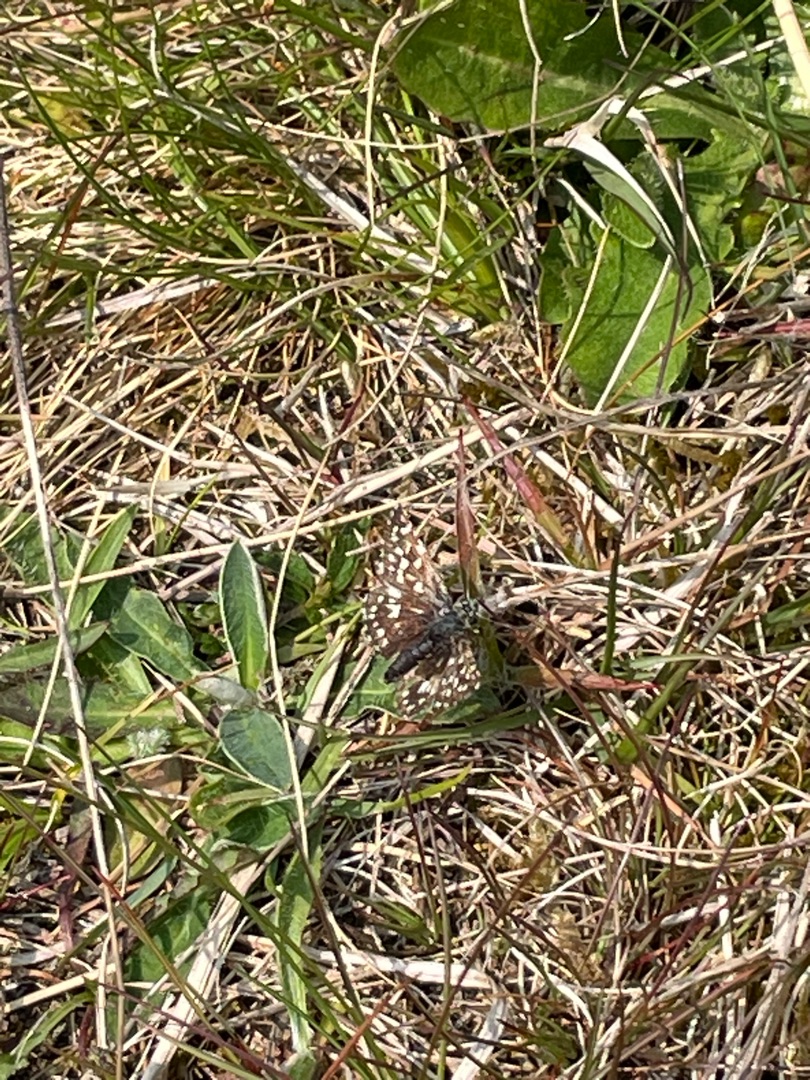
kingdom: Animalia
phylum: Arthropoda
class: Insecta
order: Lepidoptera
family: Hesperiidae
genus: Pyrgus
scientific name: Pyrgus malvae
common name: Spættet bredpande
